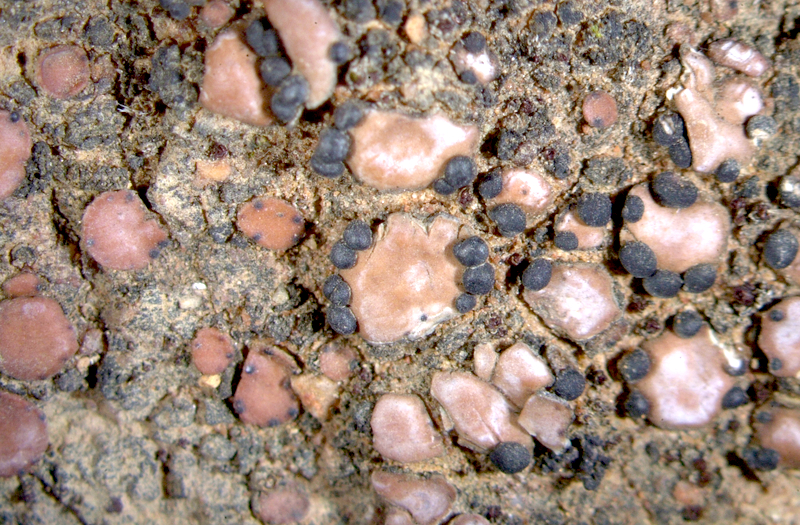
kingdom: Fungi
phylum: Ascomycota
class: Lecanoromycetes
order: Lecanorales
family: Psoraceae
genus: Psora
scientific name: Psora crenata
